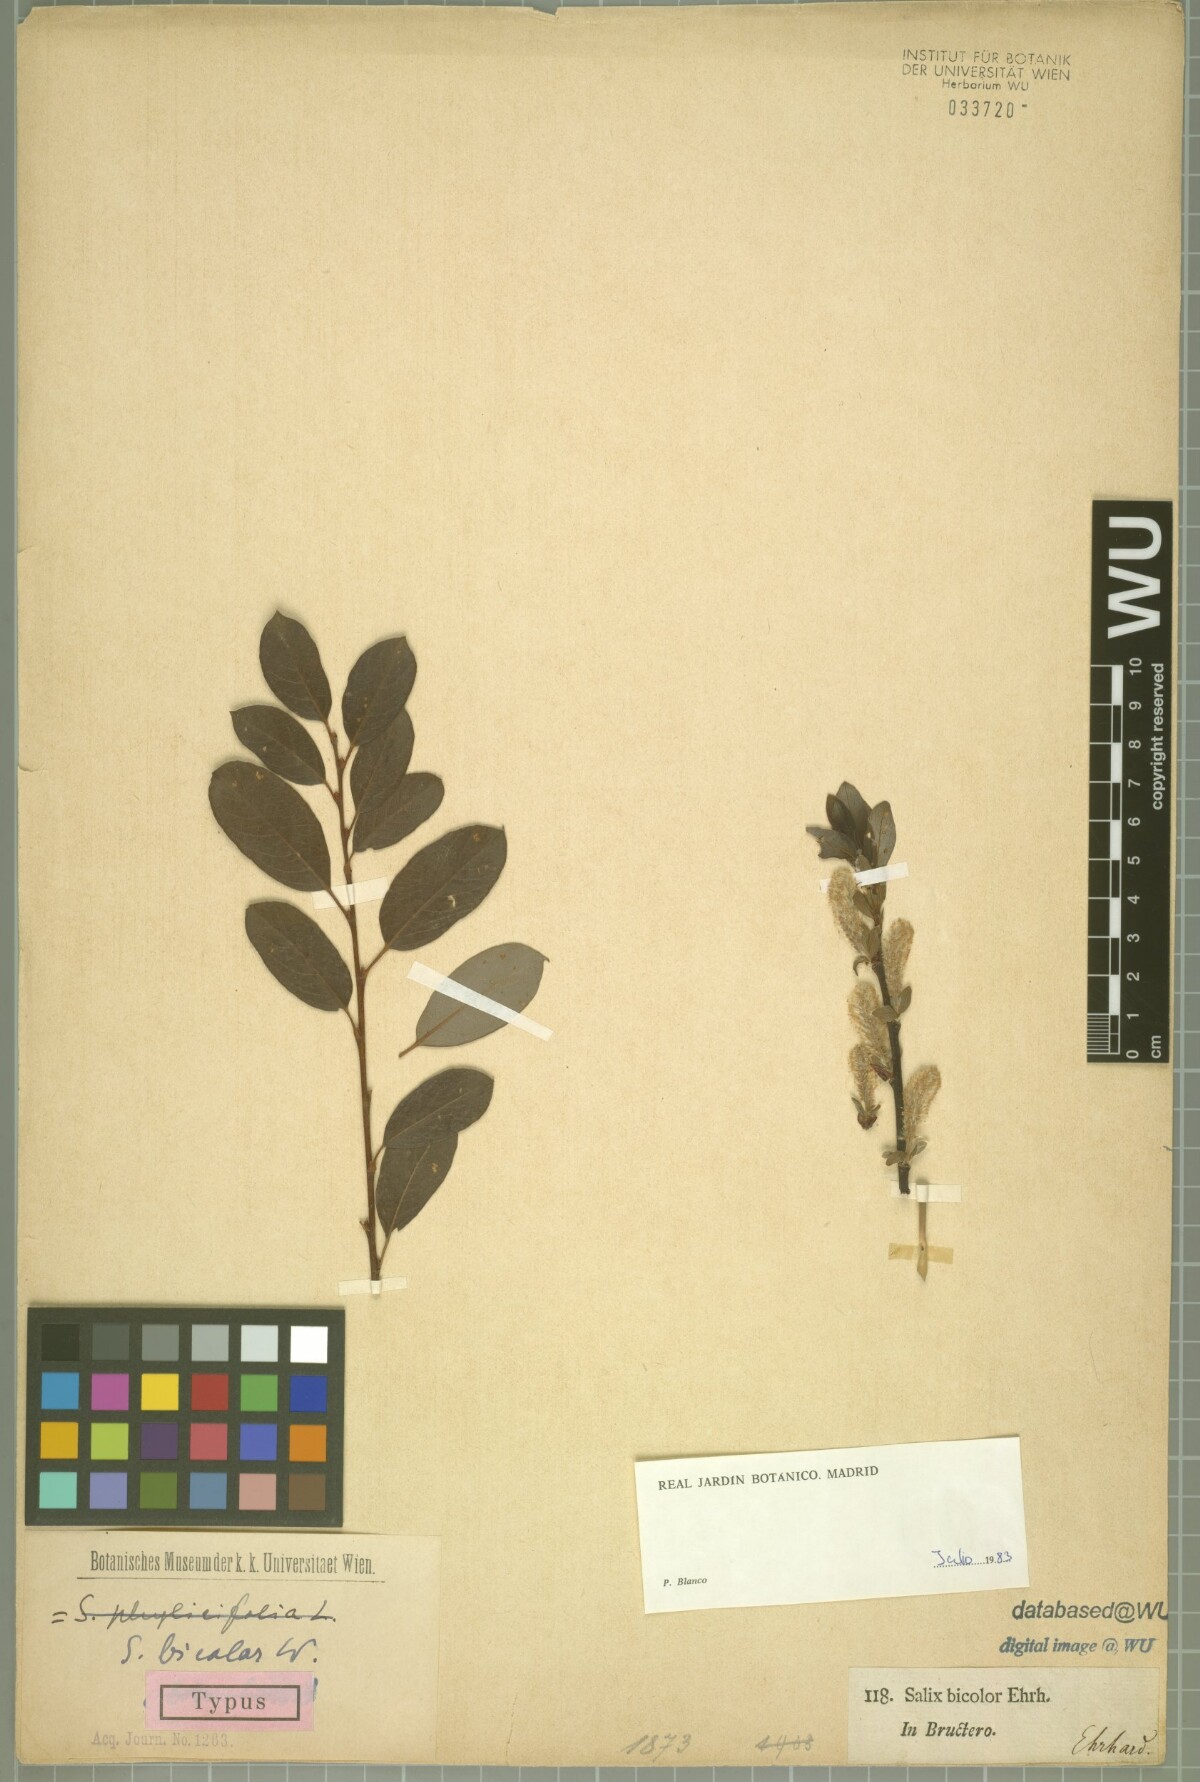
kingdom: Plantae
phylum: Tracheophyta
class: Magnoliopsida
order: Malpighiales
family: Salicaceae
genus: Salix
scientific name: Salix bicolor
